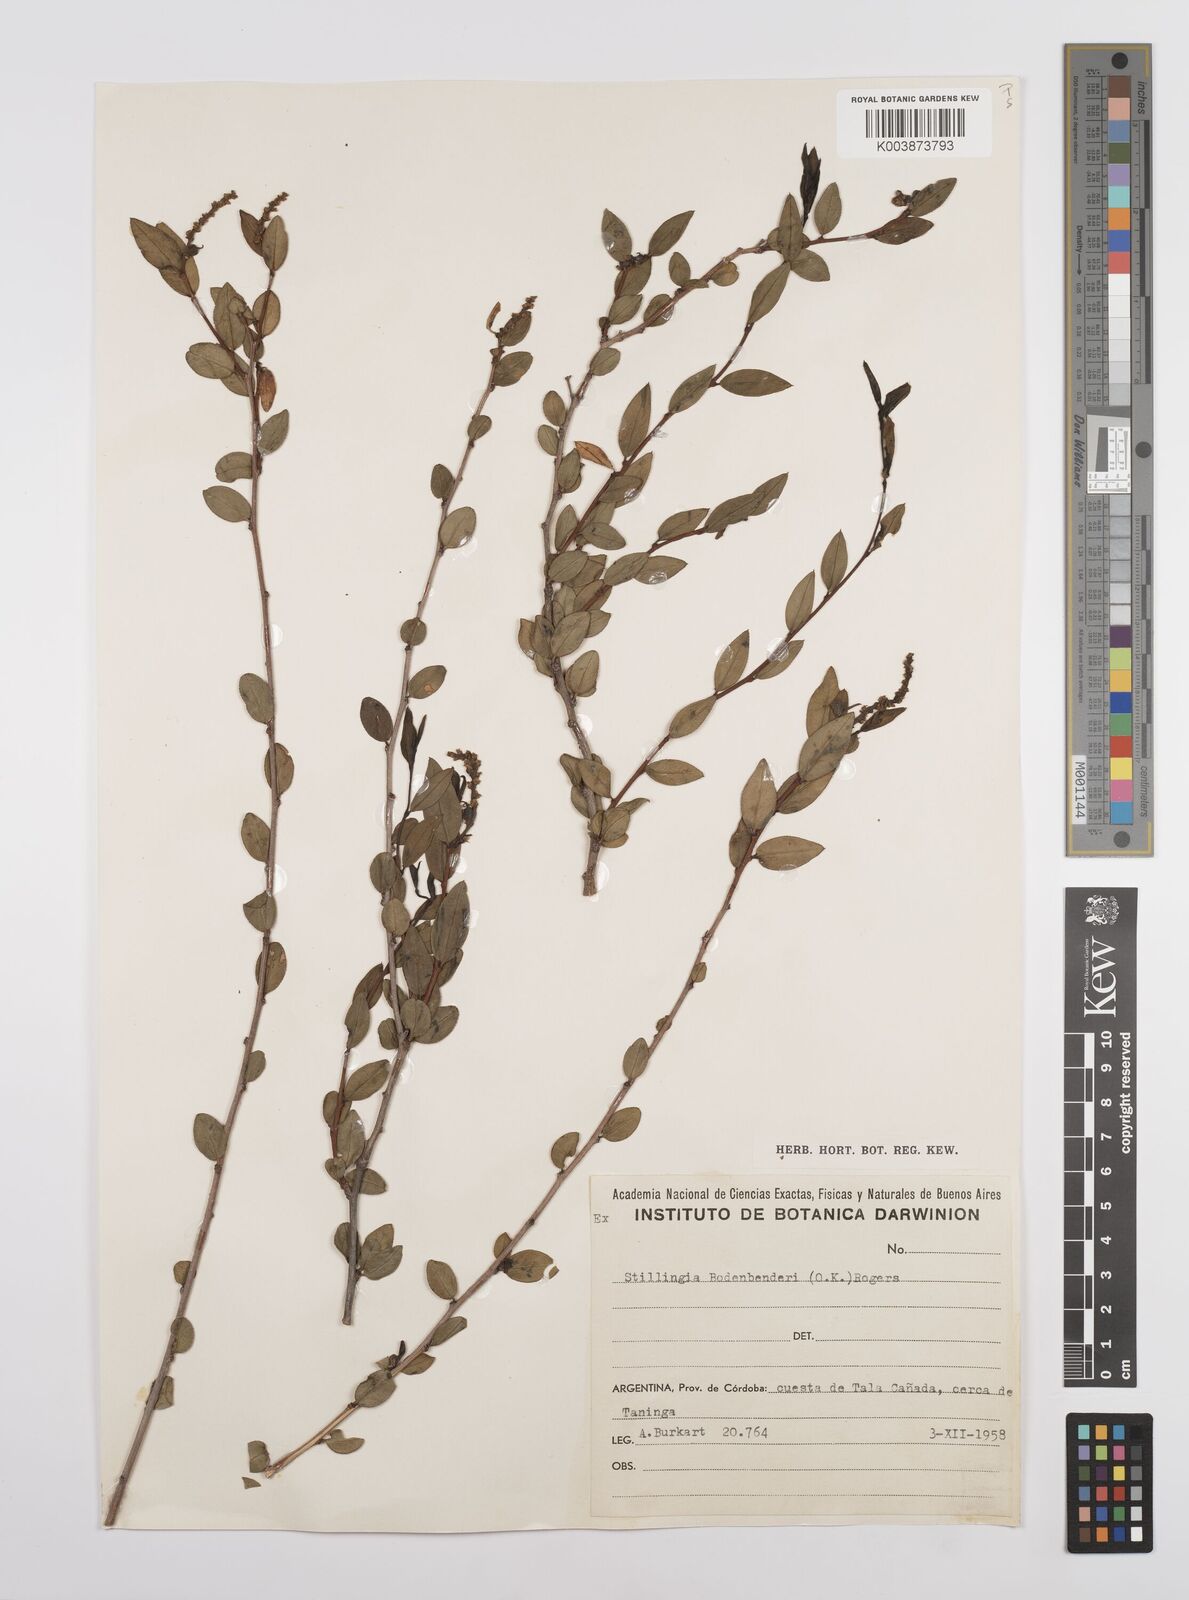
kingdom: Plantae
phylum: Tracheophyta
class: Magnoliopsida
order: Malpighiales
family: Euphorbiaceae
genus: Stillingia
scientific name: Stillingia bodenbenderi
